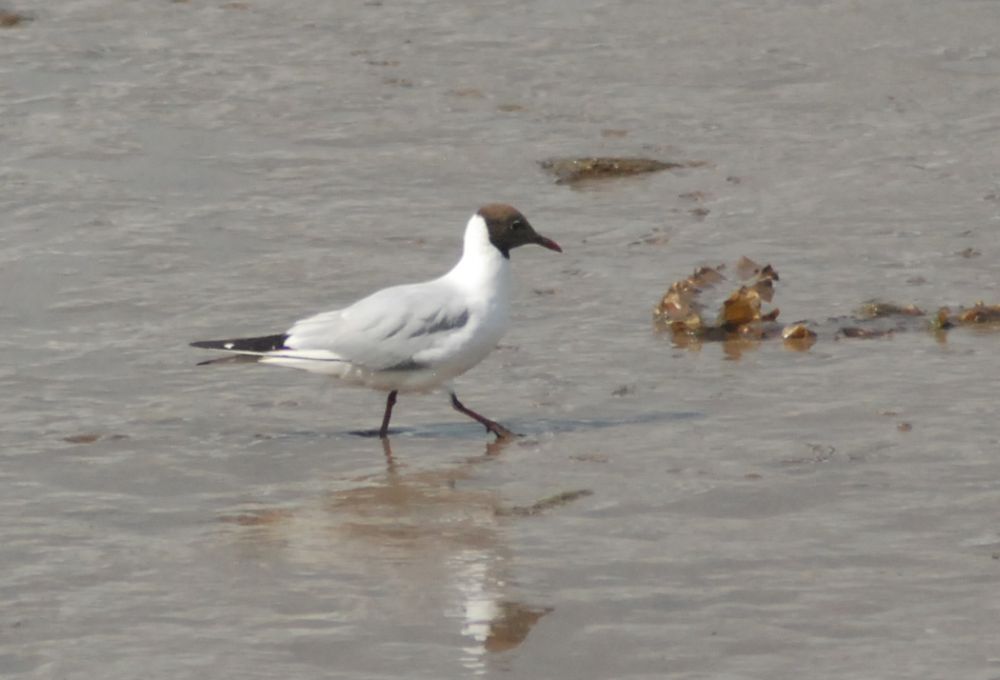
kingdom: Animalia
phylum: Chordata
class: Aves
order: Charadriiformes
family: Laridae
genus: Chroicocephalus
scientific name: Chroicocephalus ridibundus
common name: Black-headed gull
